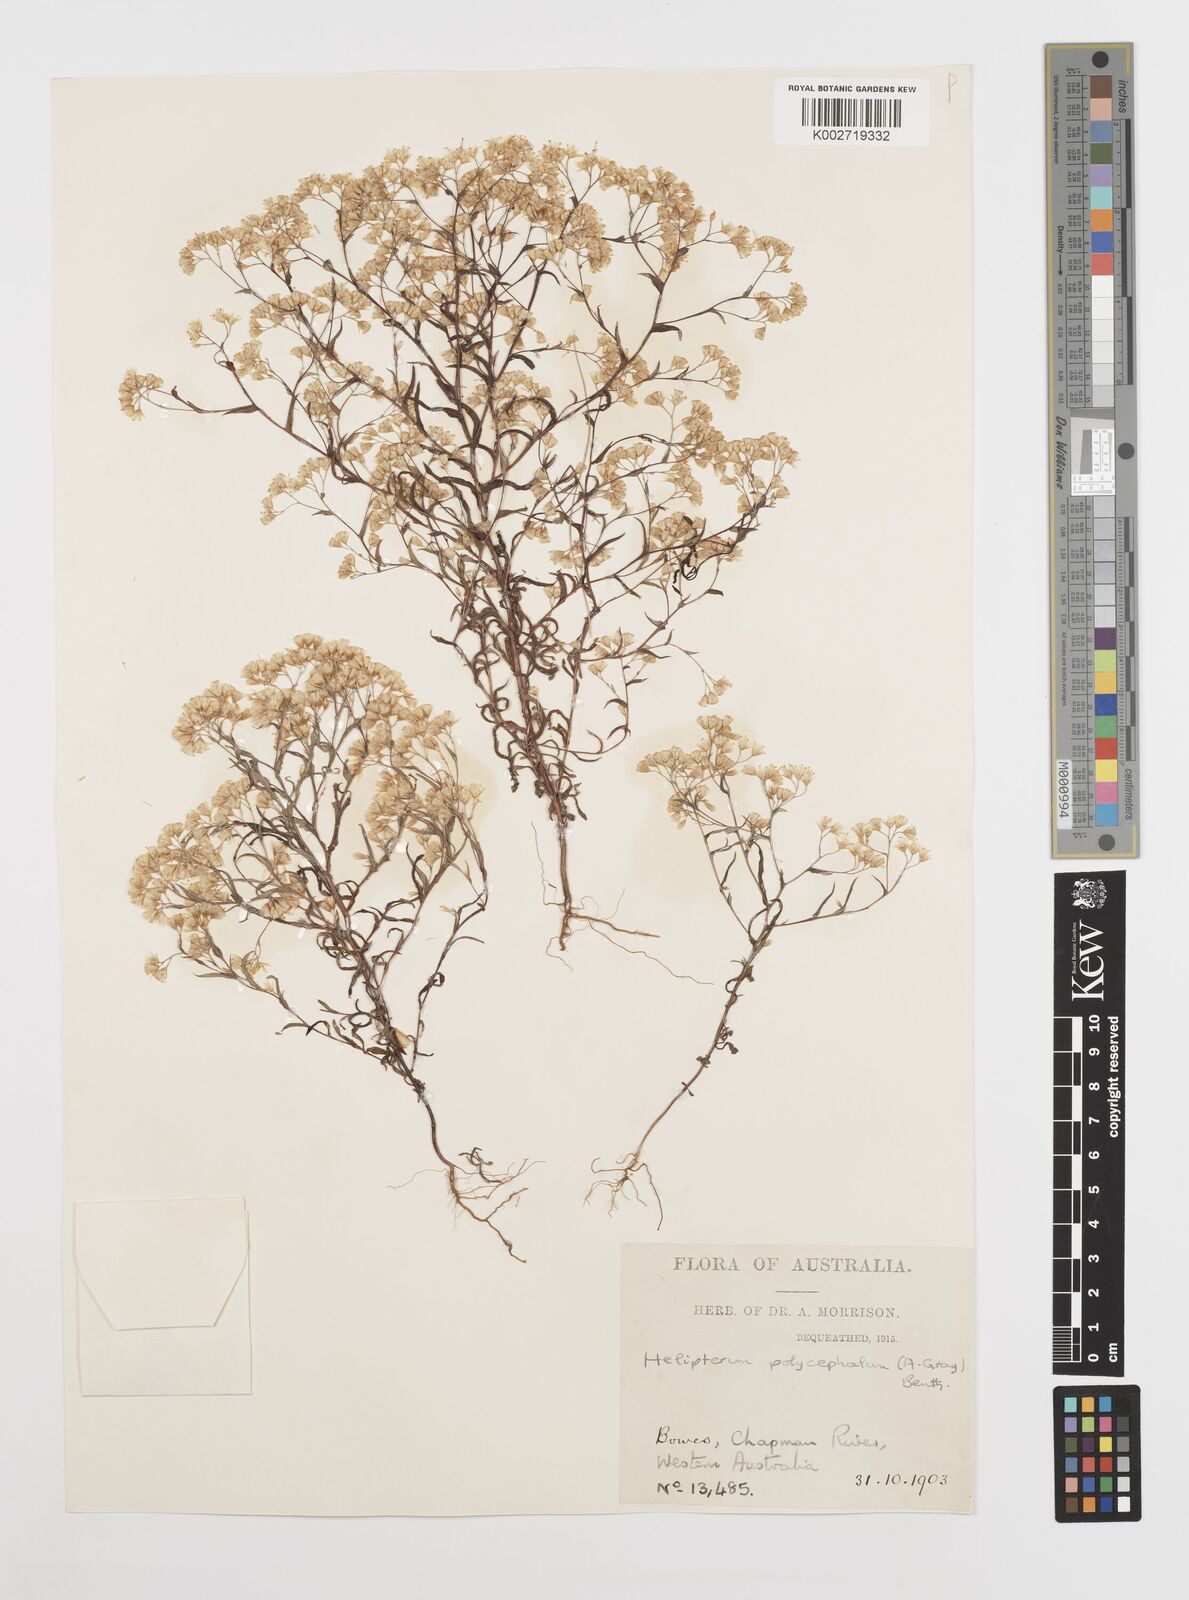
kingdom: Plantae
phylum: Tracheophyta
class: Magnoliopsida
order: Asterales
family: Asteraceae
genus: Rhodanthe
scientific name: Rhodanthe polycephala
